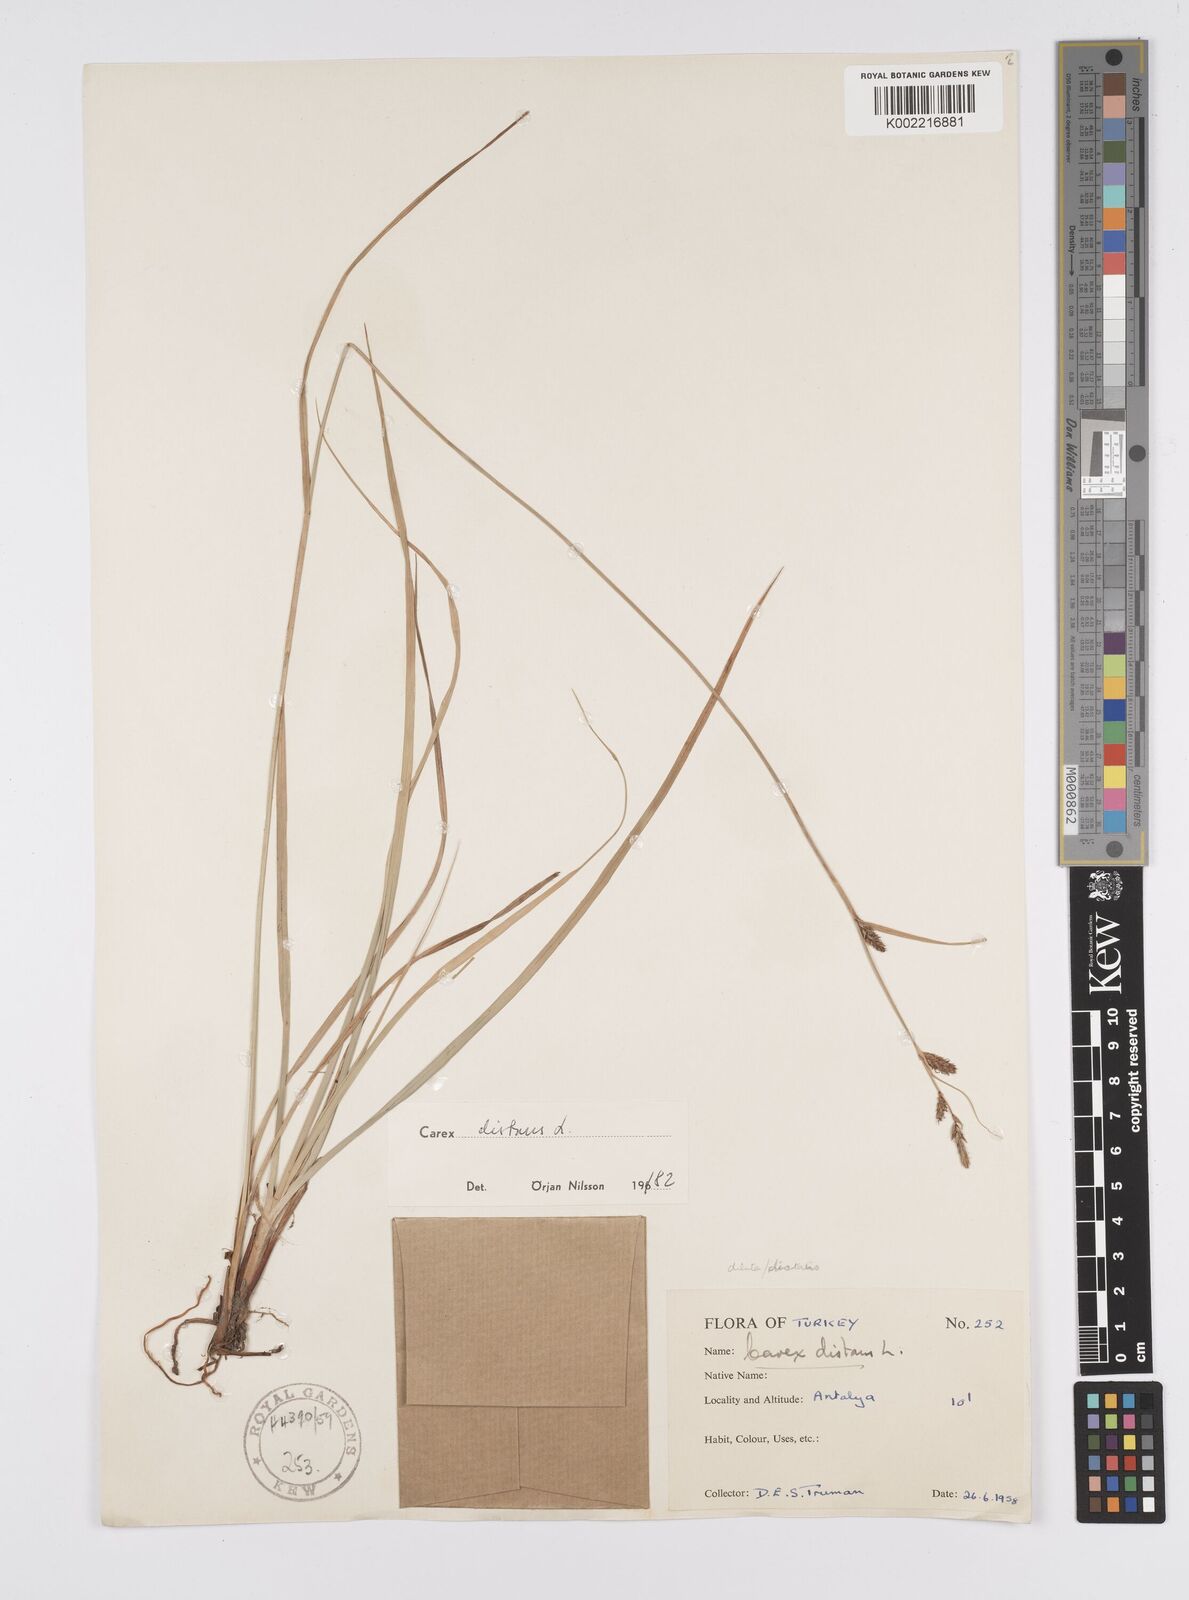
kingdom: Plantae
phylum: Tracheophyta
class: Liliopsida
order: Poales
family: Cyperaceae
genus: Carex
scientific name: Carex distans
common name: Distant sedge
